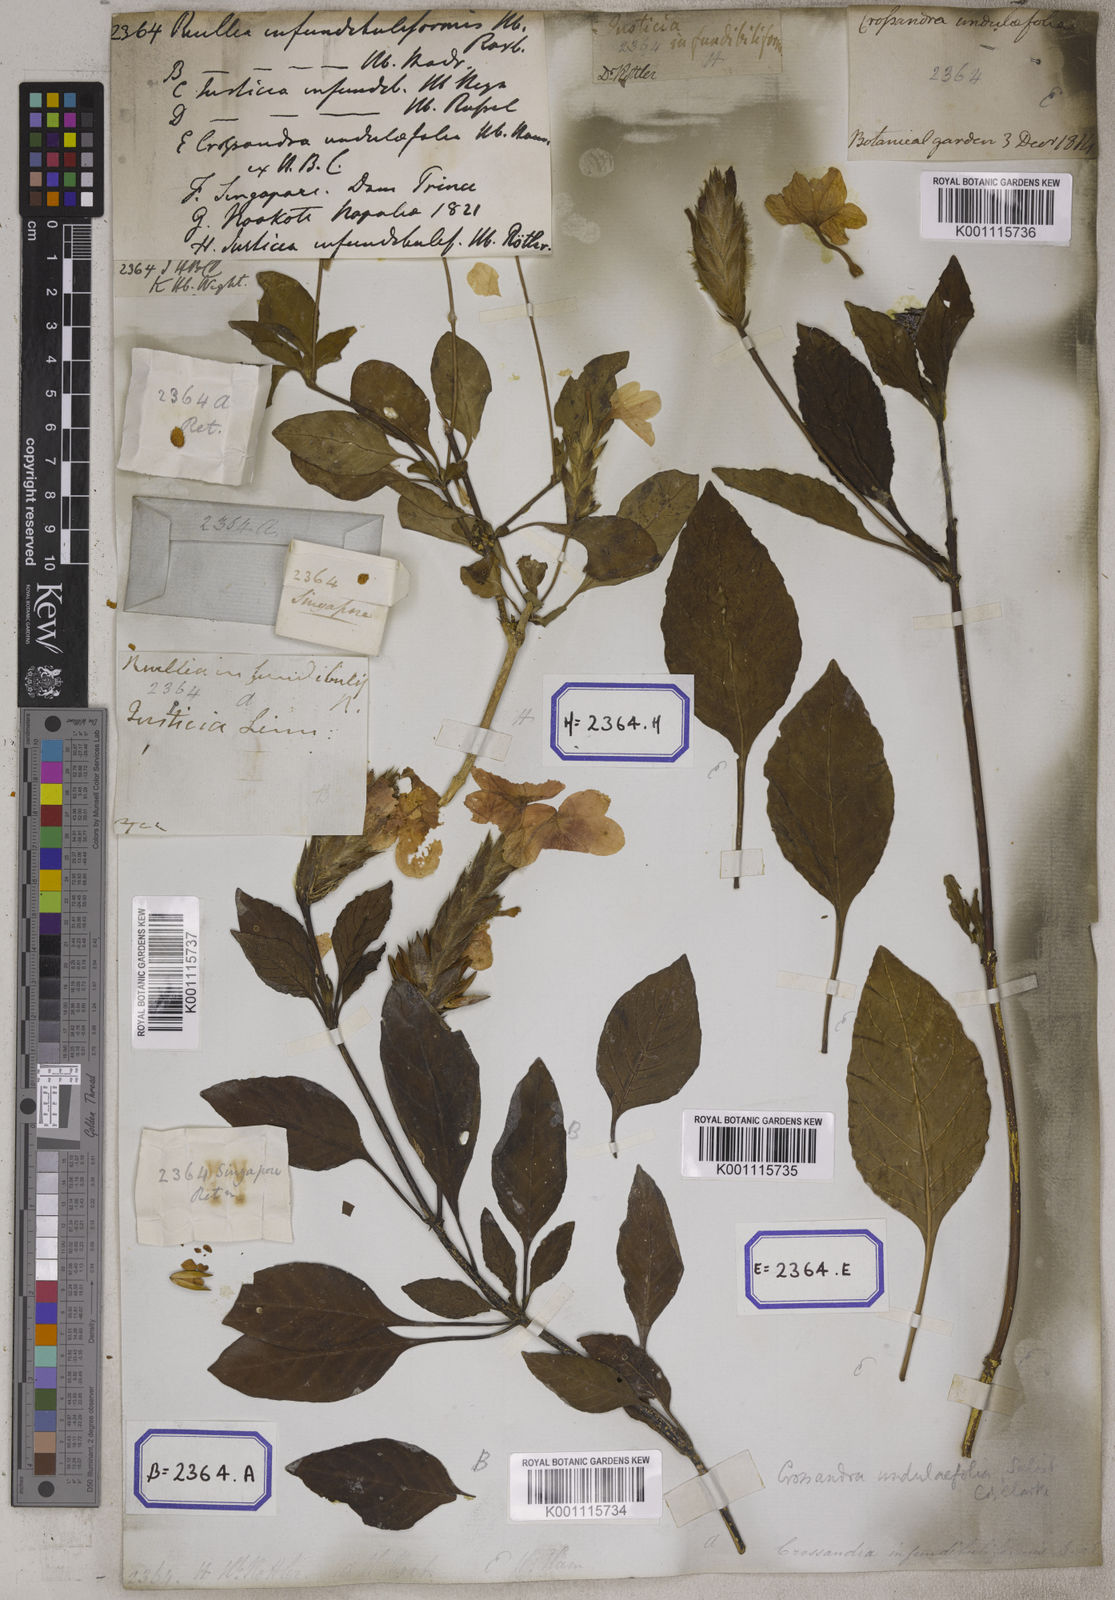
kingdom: Plantae
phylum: Tracheophyta
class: Magnoliopsida
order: Lamiales
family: Acanthaceae
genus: Crossandra
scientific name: Crossandra infundibuliformis
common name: Firecracker-flower
